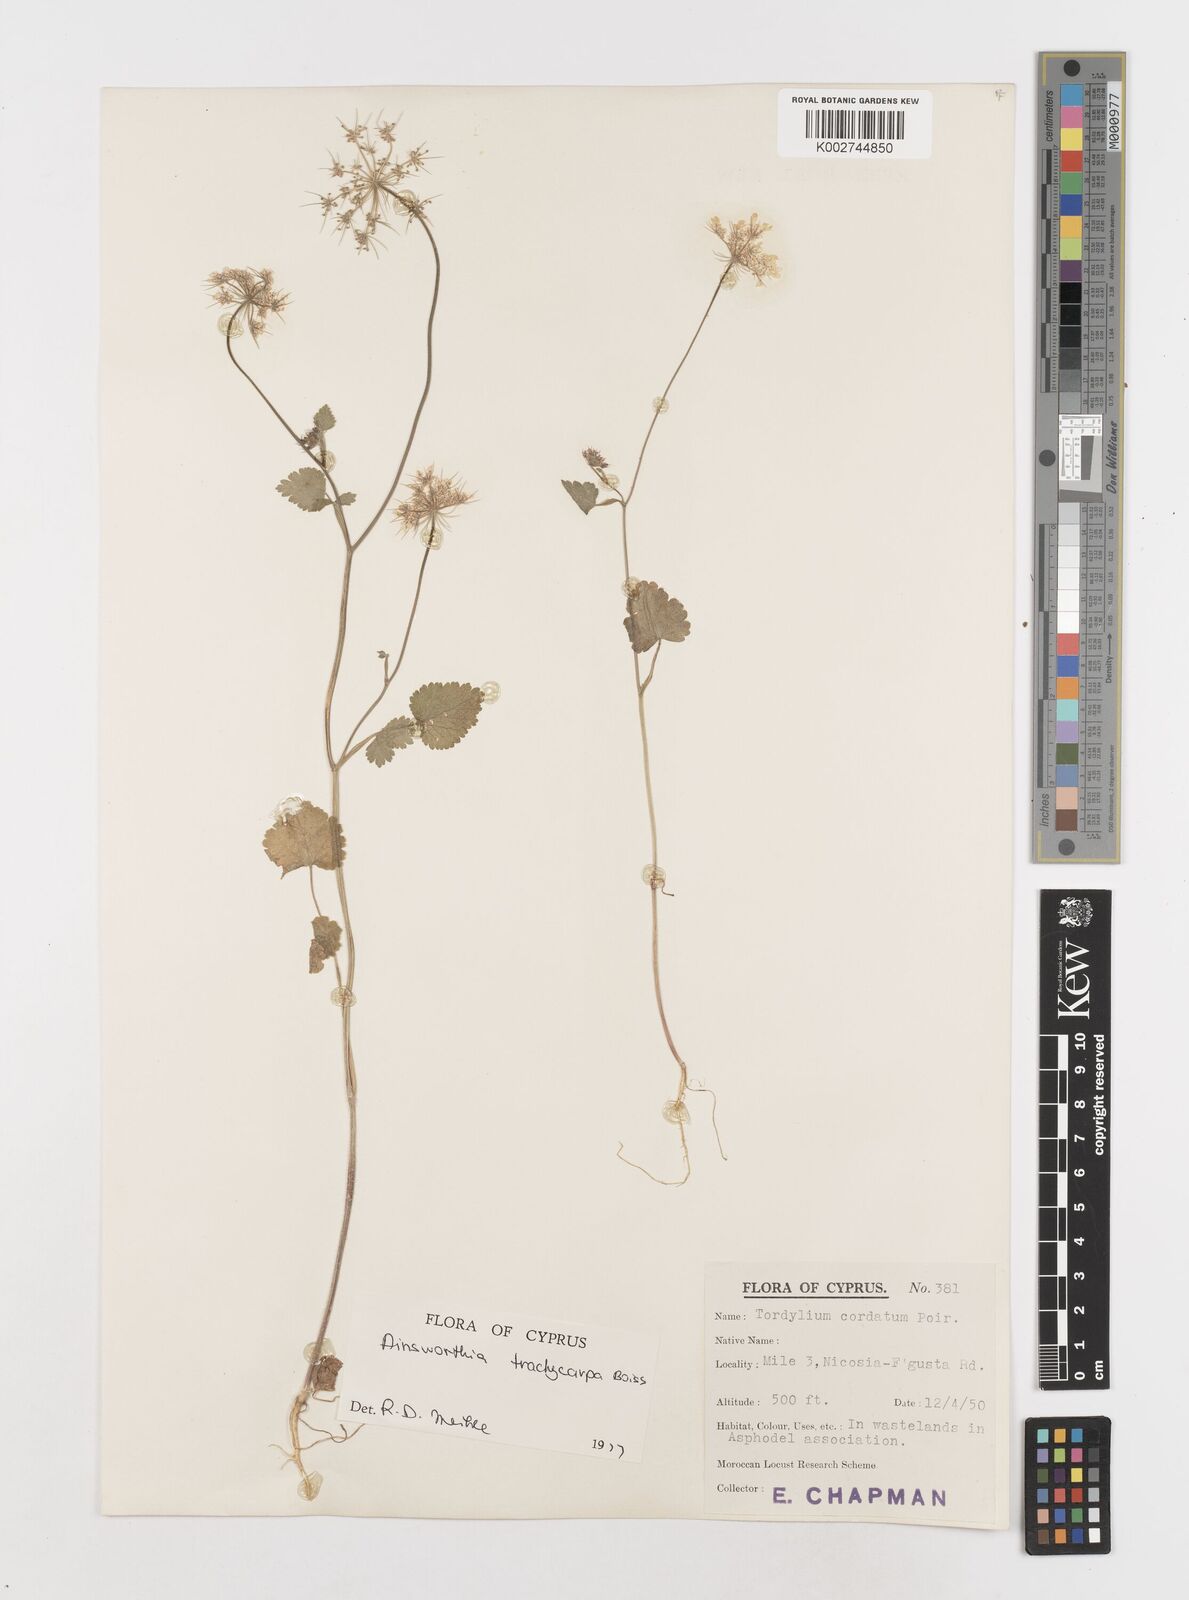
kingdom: Plantae
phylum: Tracheophyta
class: Magnoliopsida
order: Apiales
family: Apiaceae
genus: Ainsworthia
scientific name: Ainsworthia trachycarpa
